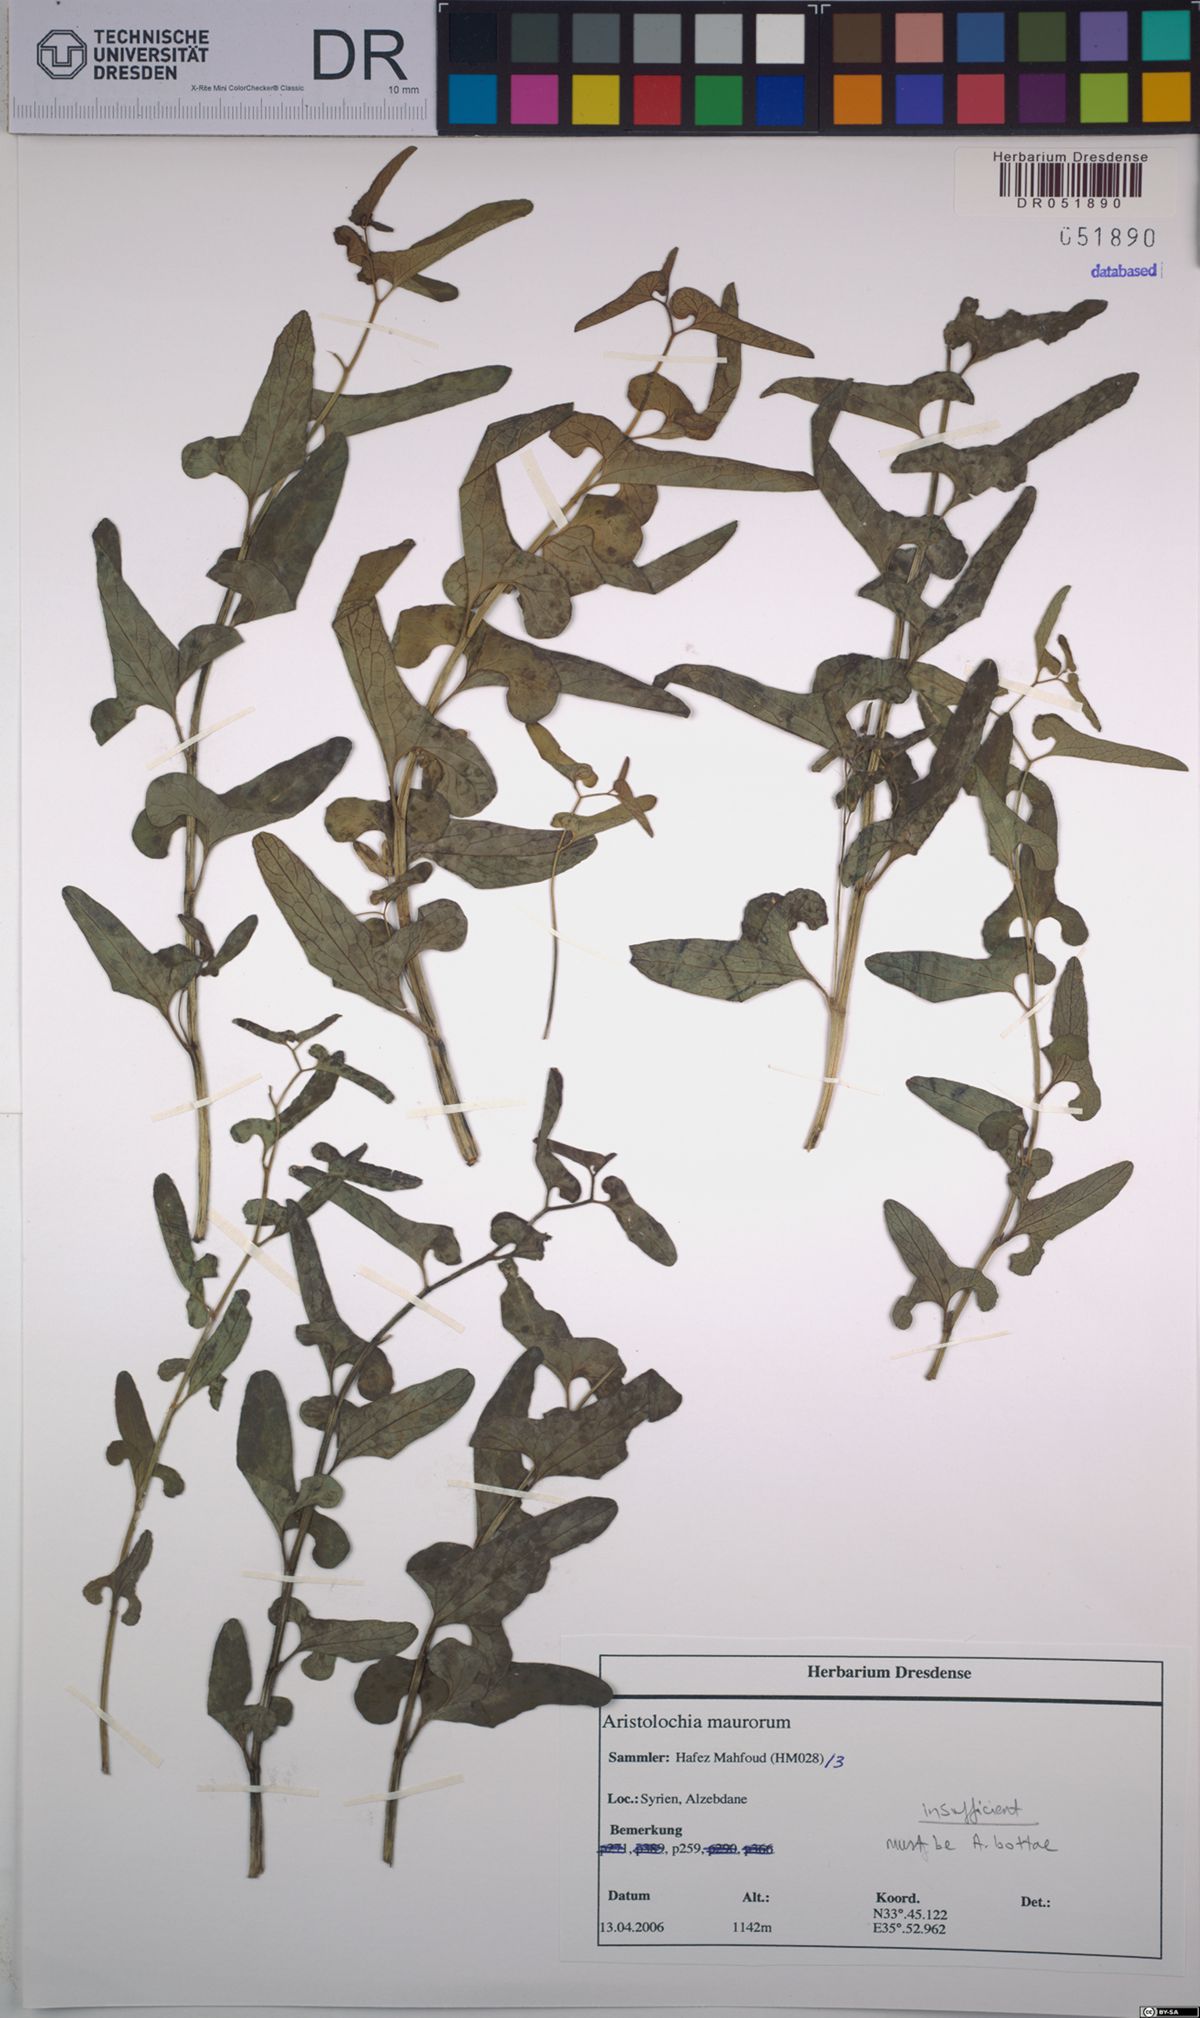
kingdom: Plantae
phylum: Tracheophyta
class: Magnoliopsida
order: Piperales
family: Aristolochiaceae
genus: Aristolochia
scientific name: Aristolochia bottae
